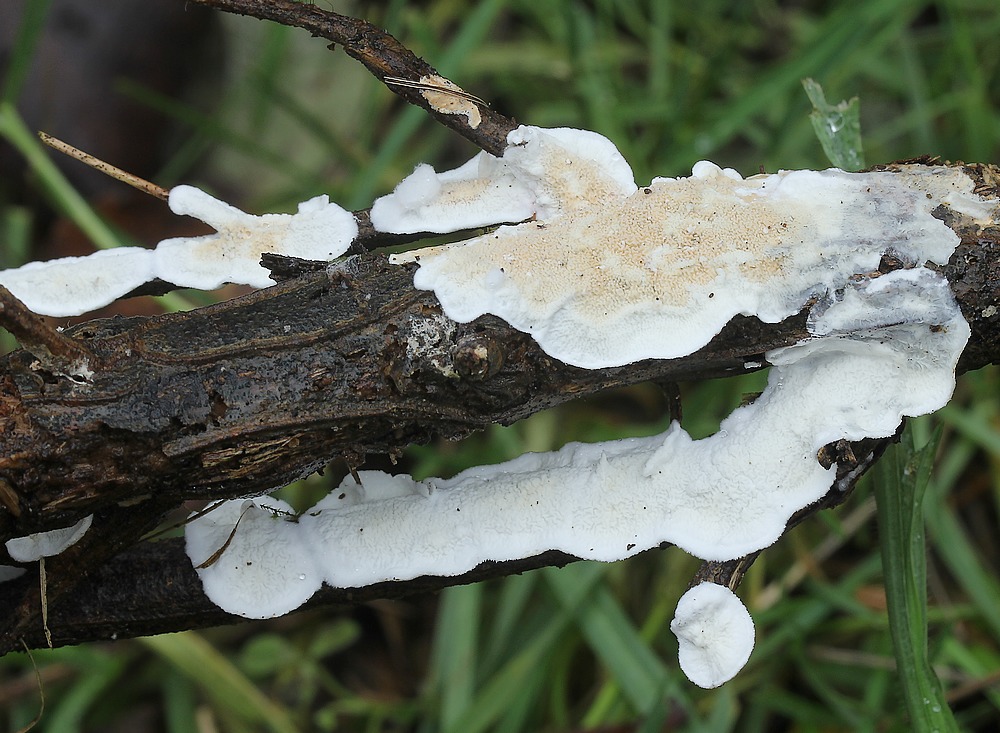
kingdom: Fungi
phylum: Basidiomycota
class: Agaricomycetes
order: Polyporales
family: Irpicaceae
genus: Byssomerulius
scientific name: Byssomerulius corium
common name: læder-åresvamp
